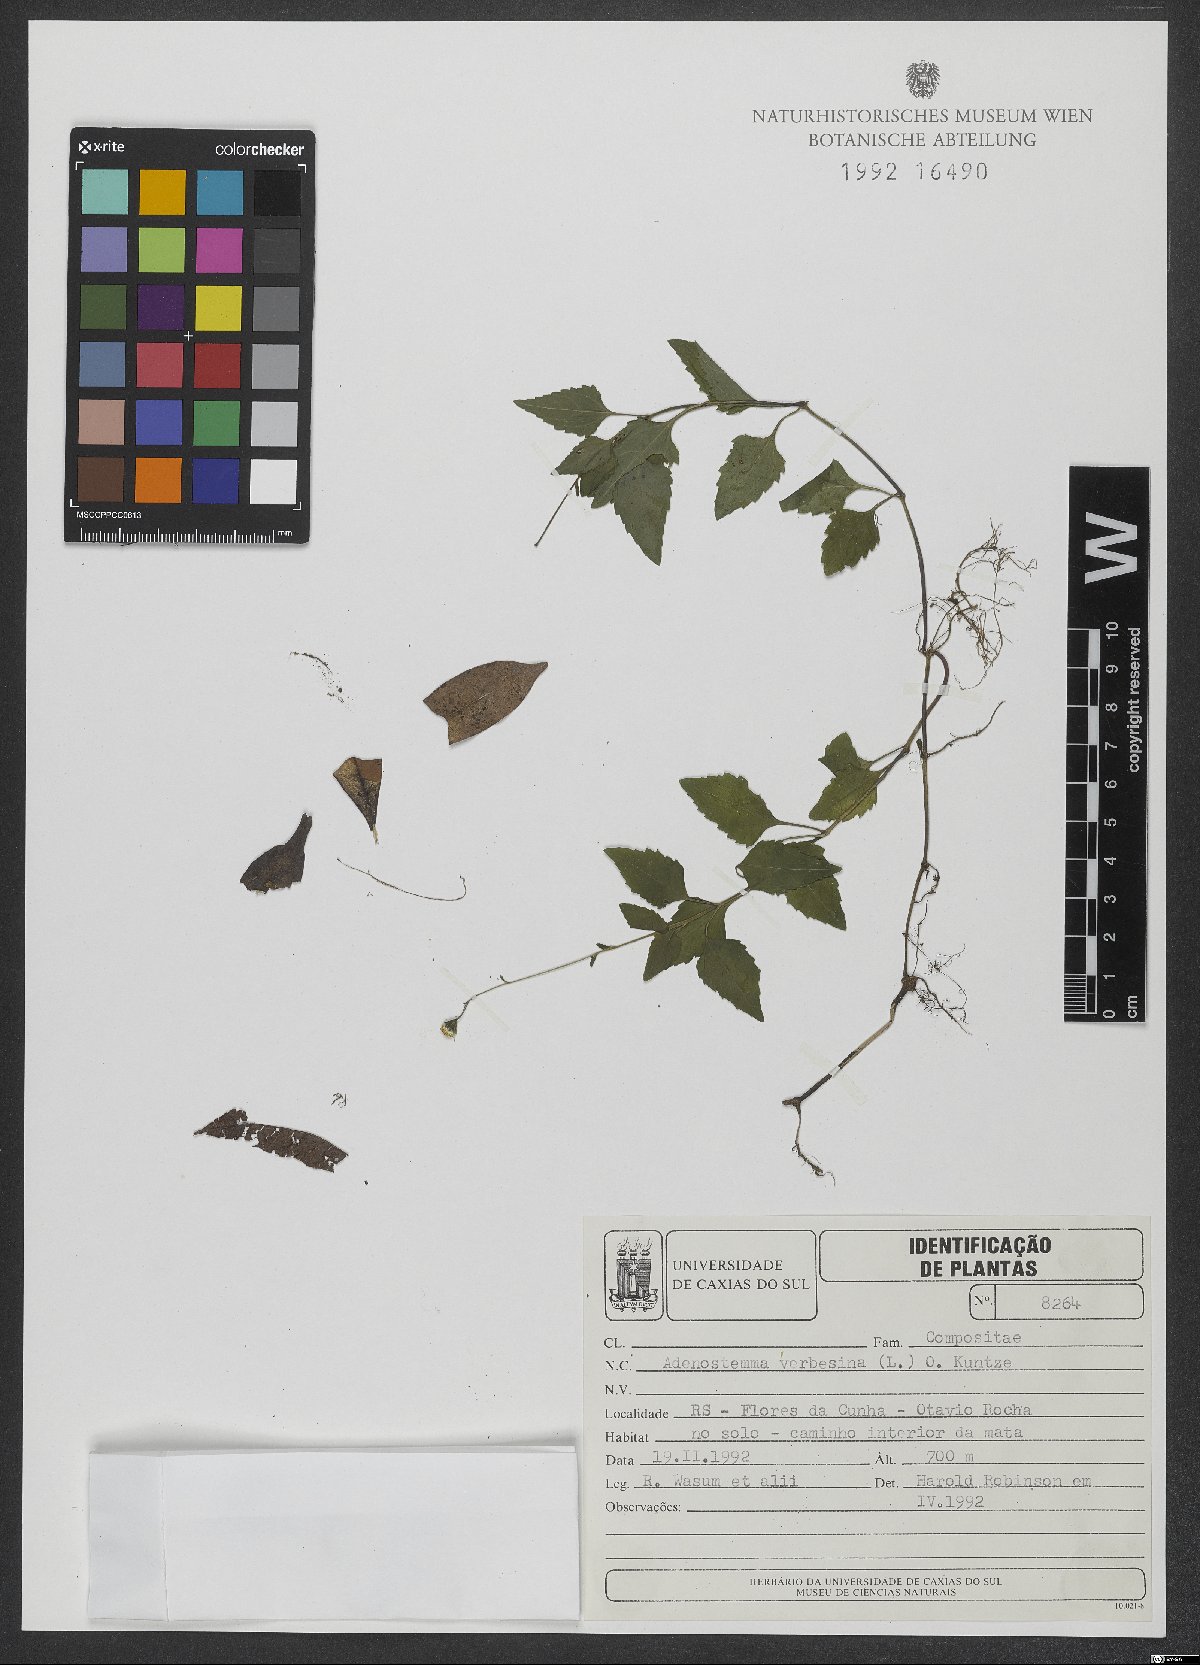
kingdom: Plantae
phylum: Tracheophyta
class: Magnoliopsida
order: Asterales
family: Asteraceae
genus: Adenostemma
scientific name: Adenostemma verbesina
